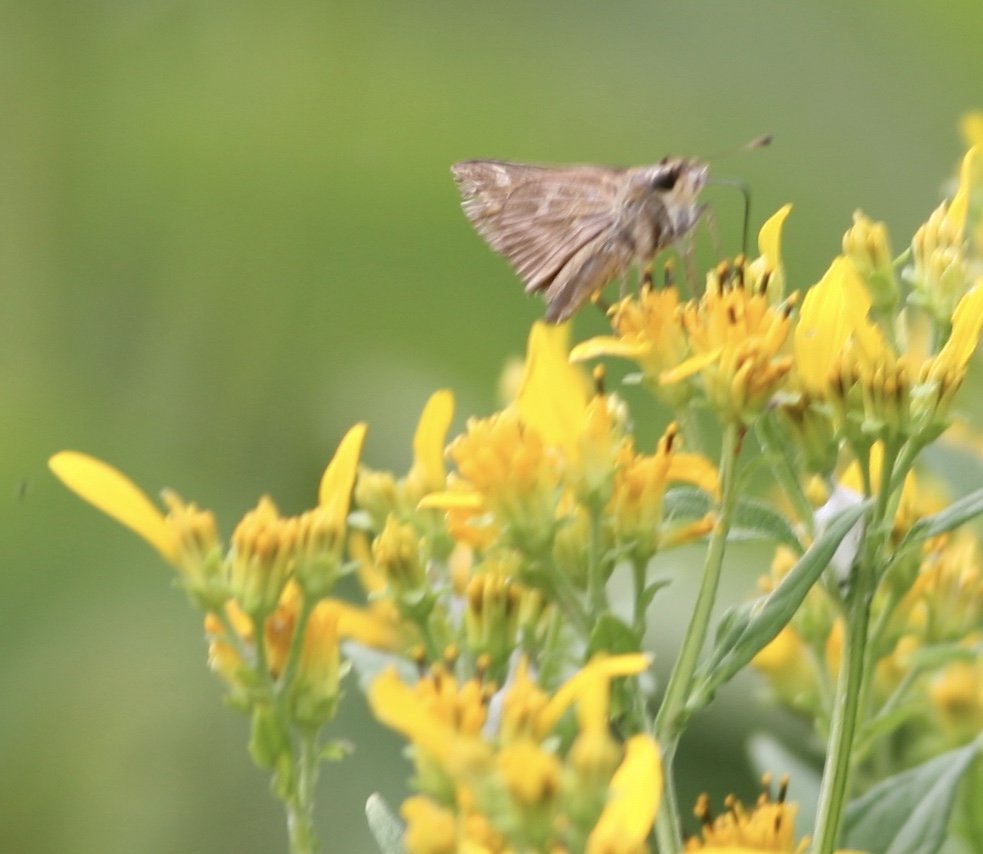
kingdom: Animalia
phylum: Arthropoda
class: Insecta
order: Lepidoptera
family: Hesperiidae
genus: Atalopedes
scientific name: Atalopedes campestris
